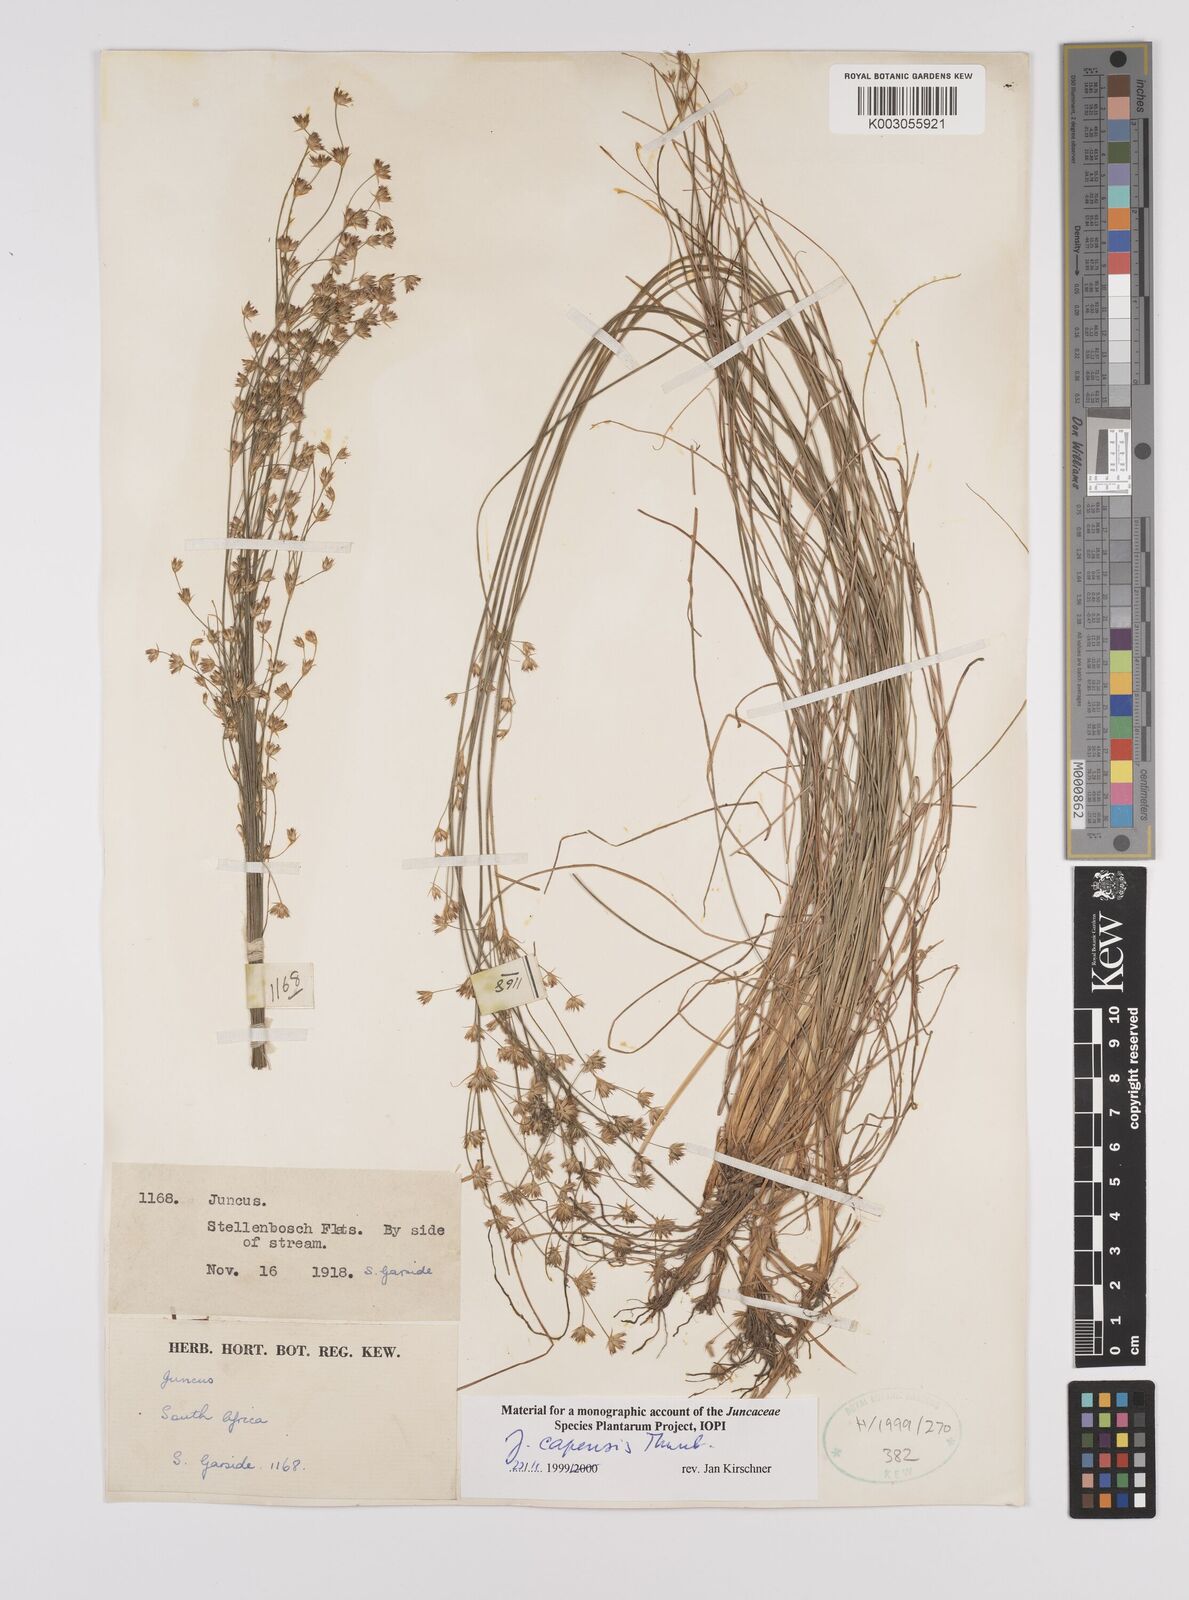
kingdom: Plantae
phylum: Tracheophyta
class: Liliopsida
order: Poales
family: Juncaceae
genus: Juncus
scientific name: Juncus capensis
